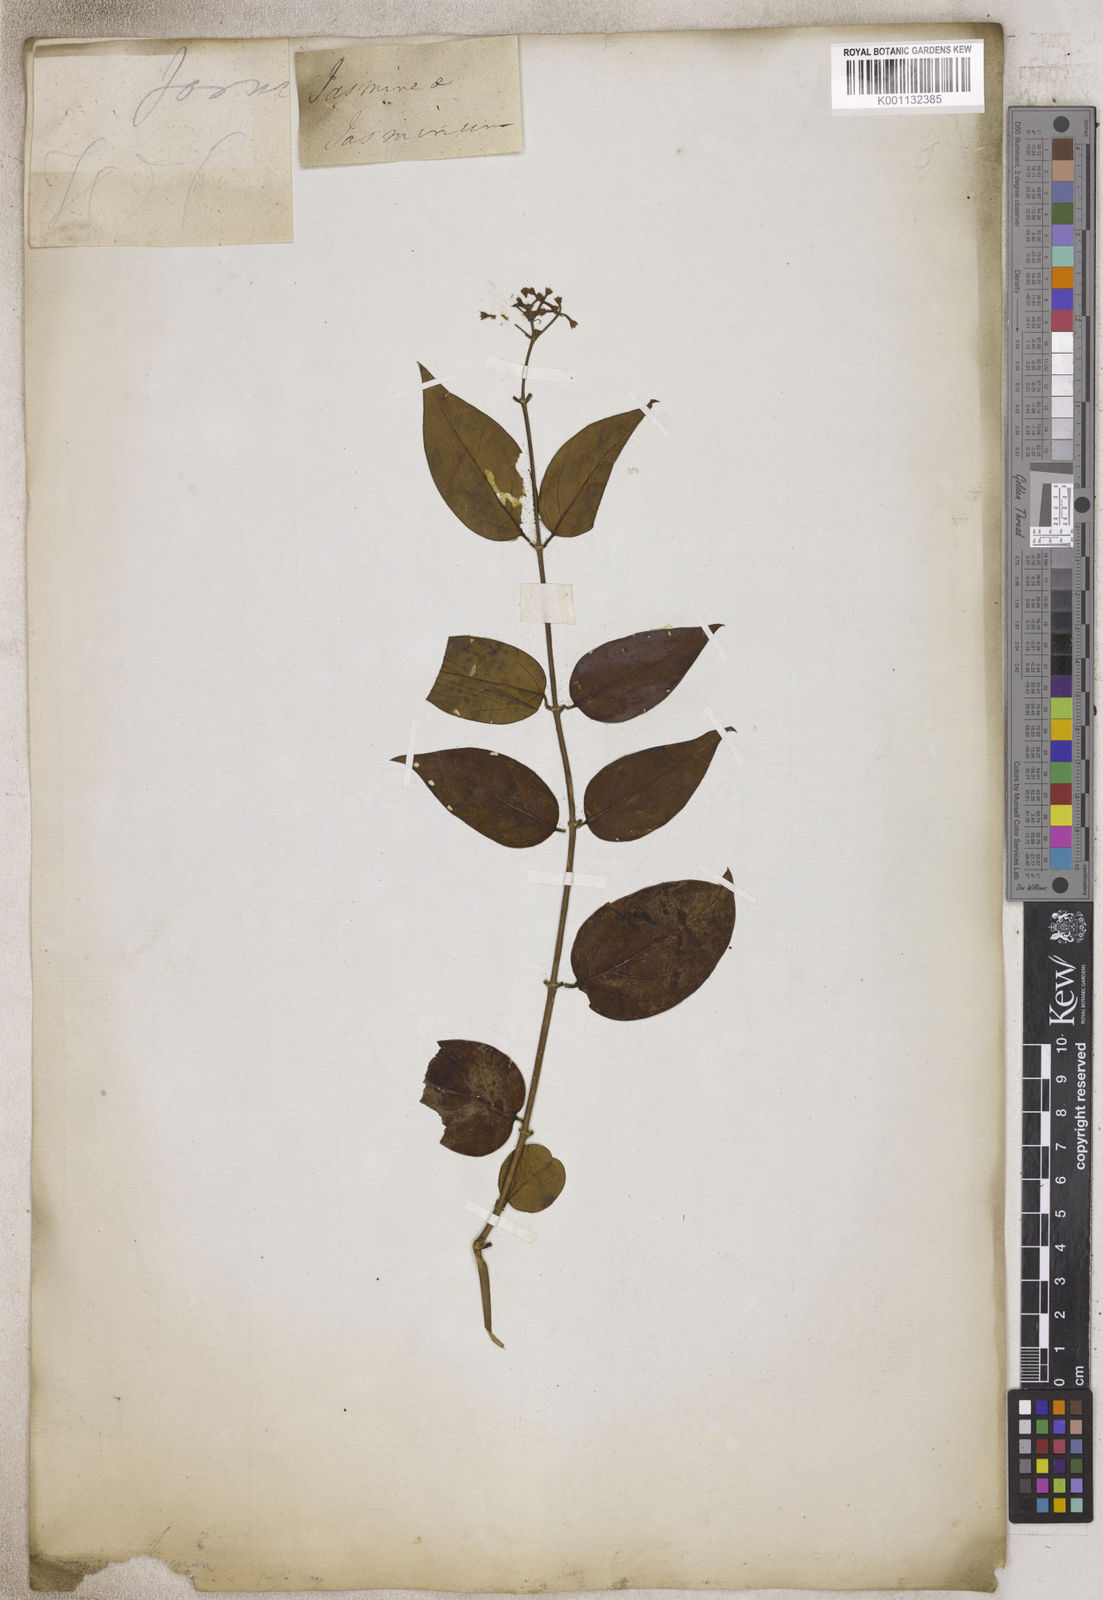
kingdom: Plantae
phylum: Tracheophyta
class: Magnoliopsida
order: Lamiales
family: Oleaceae
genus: Jasminum
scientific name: Jasminum
